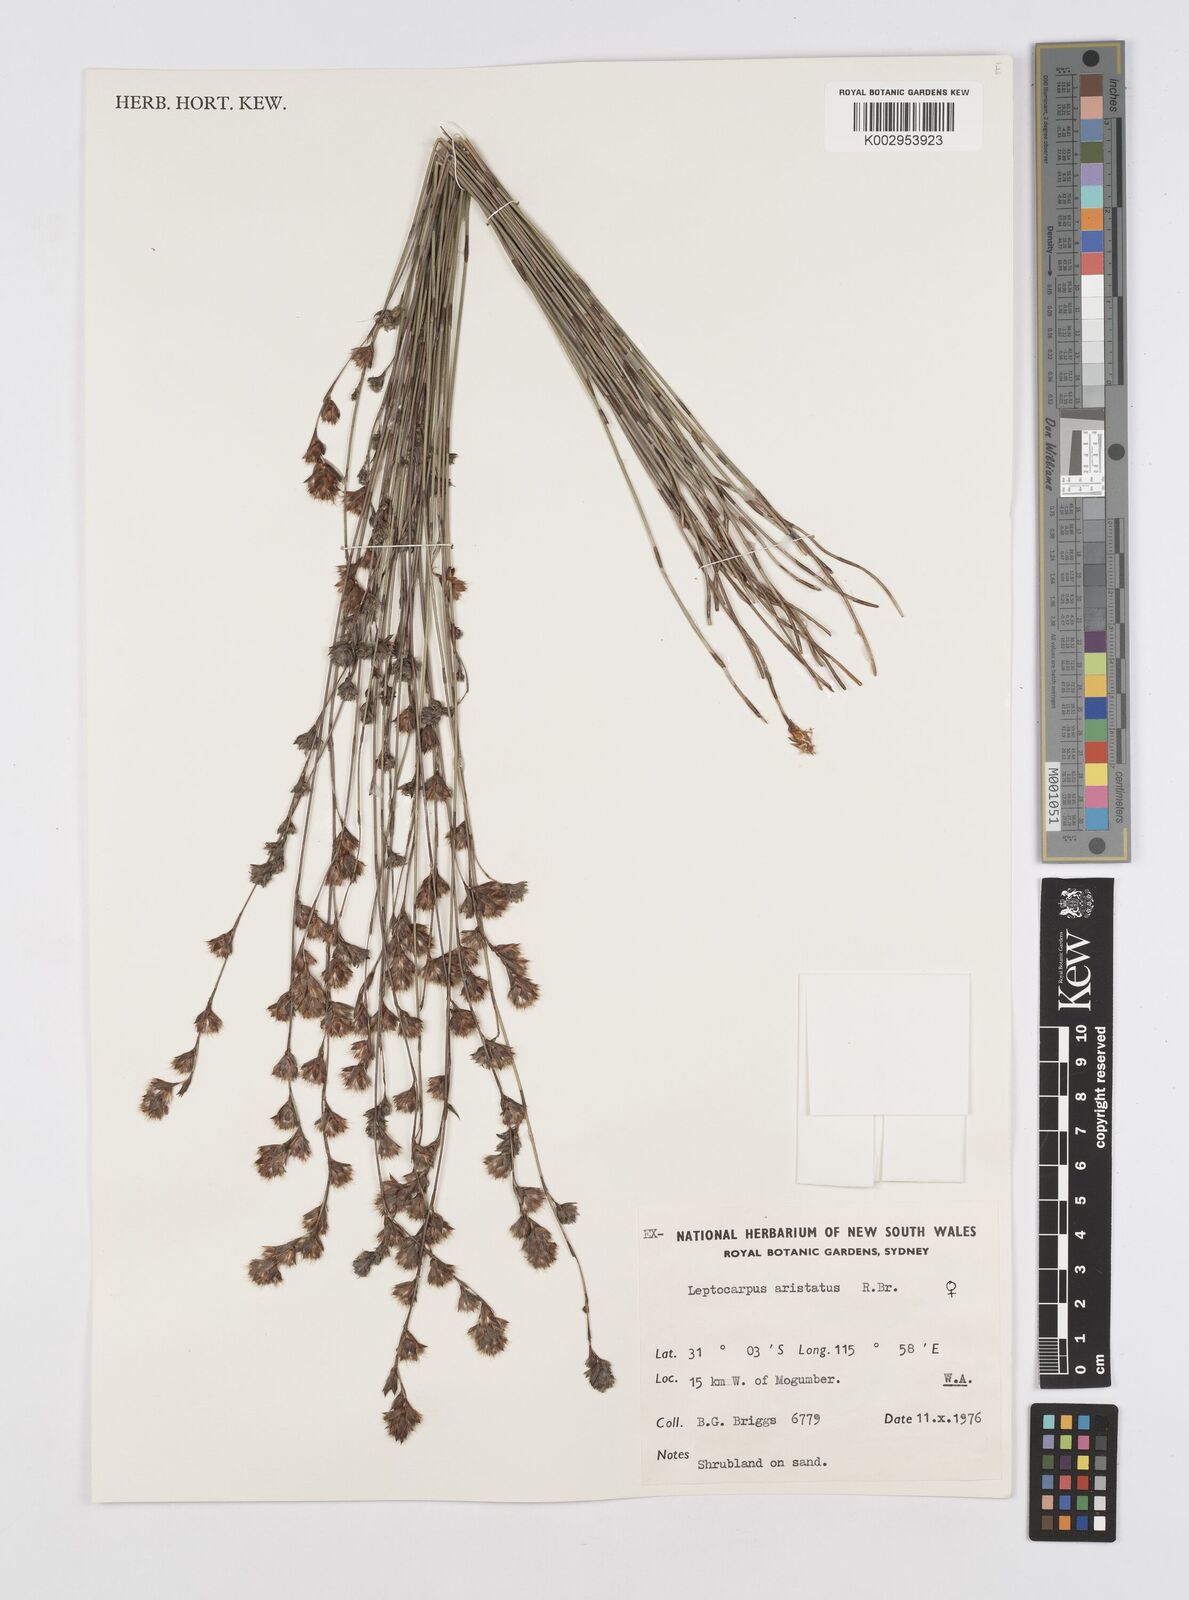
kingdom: Plantae
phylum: Tracheophyta
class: Liliopsida
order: Poales
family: Restionaceae
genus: Chaetanthus
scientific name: Chaetanthus aristatus
